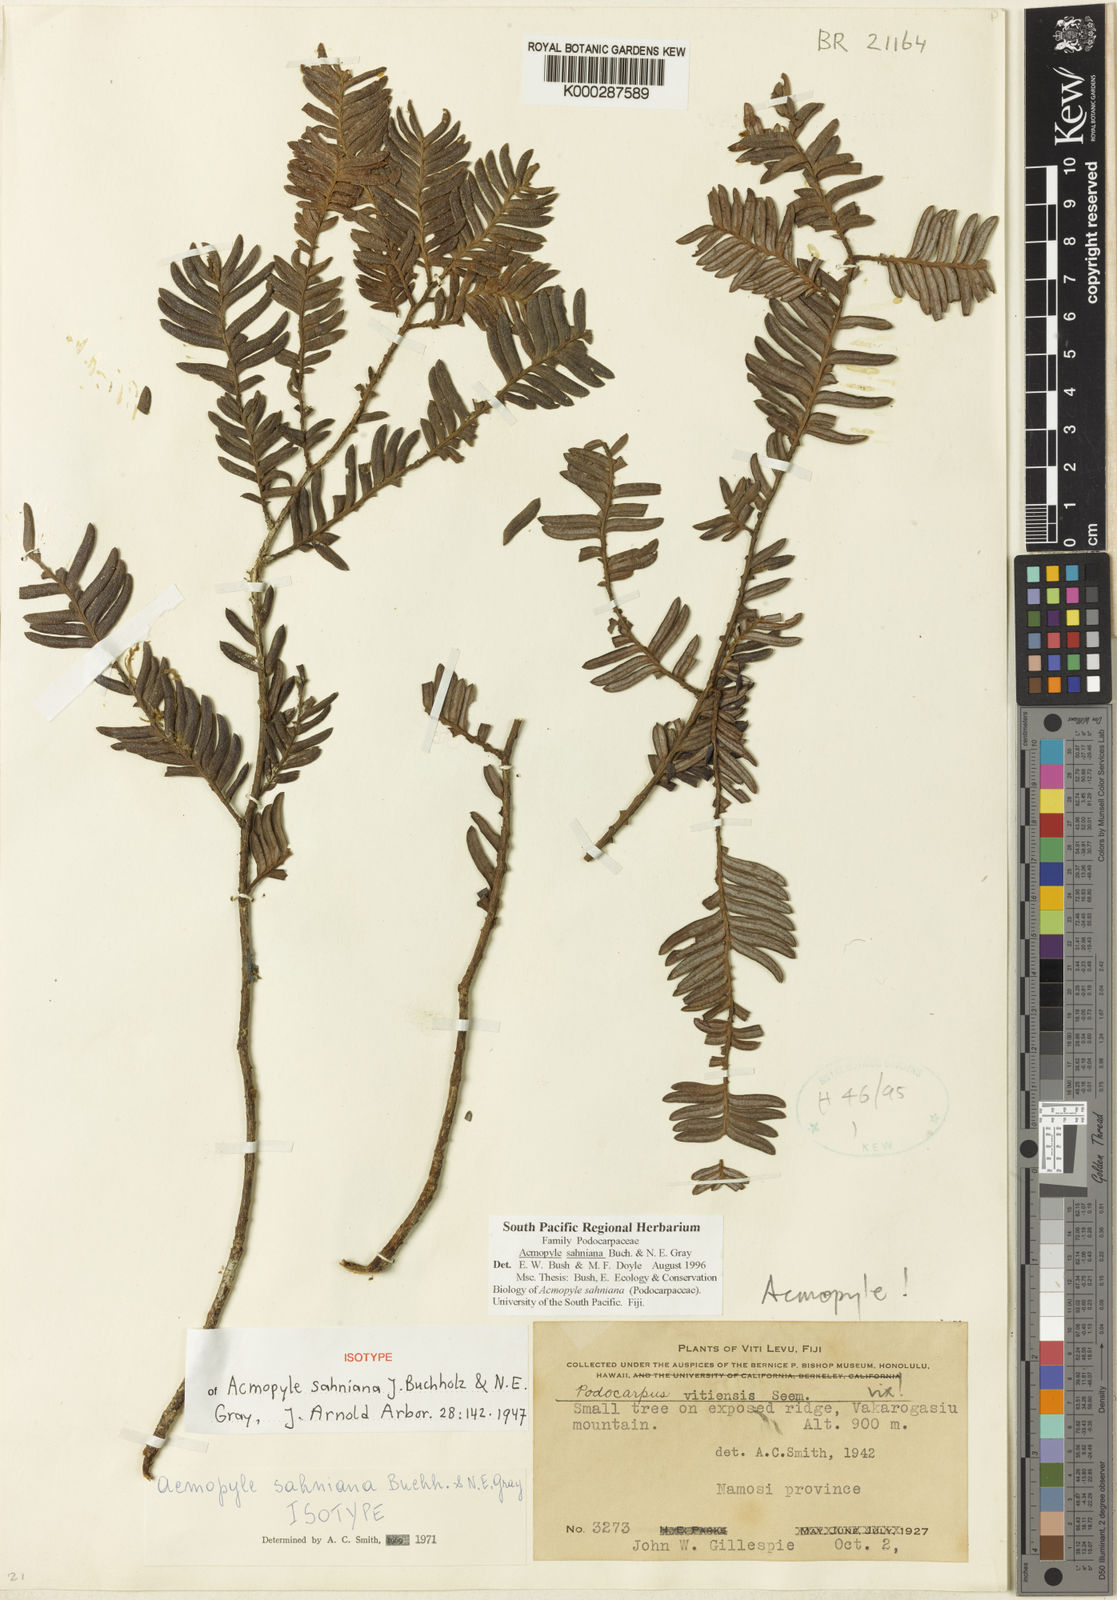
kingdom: Plantae
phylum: Tracheophyta
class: Pinopsida
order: Pinales
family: Podocarpaceae
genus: Acmopyle
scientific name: Acmopyle sahniana
